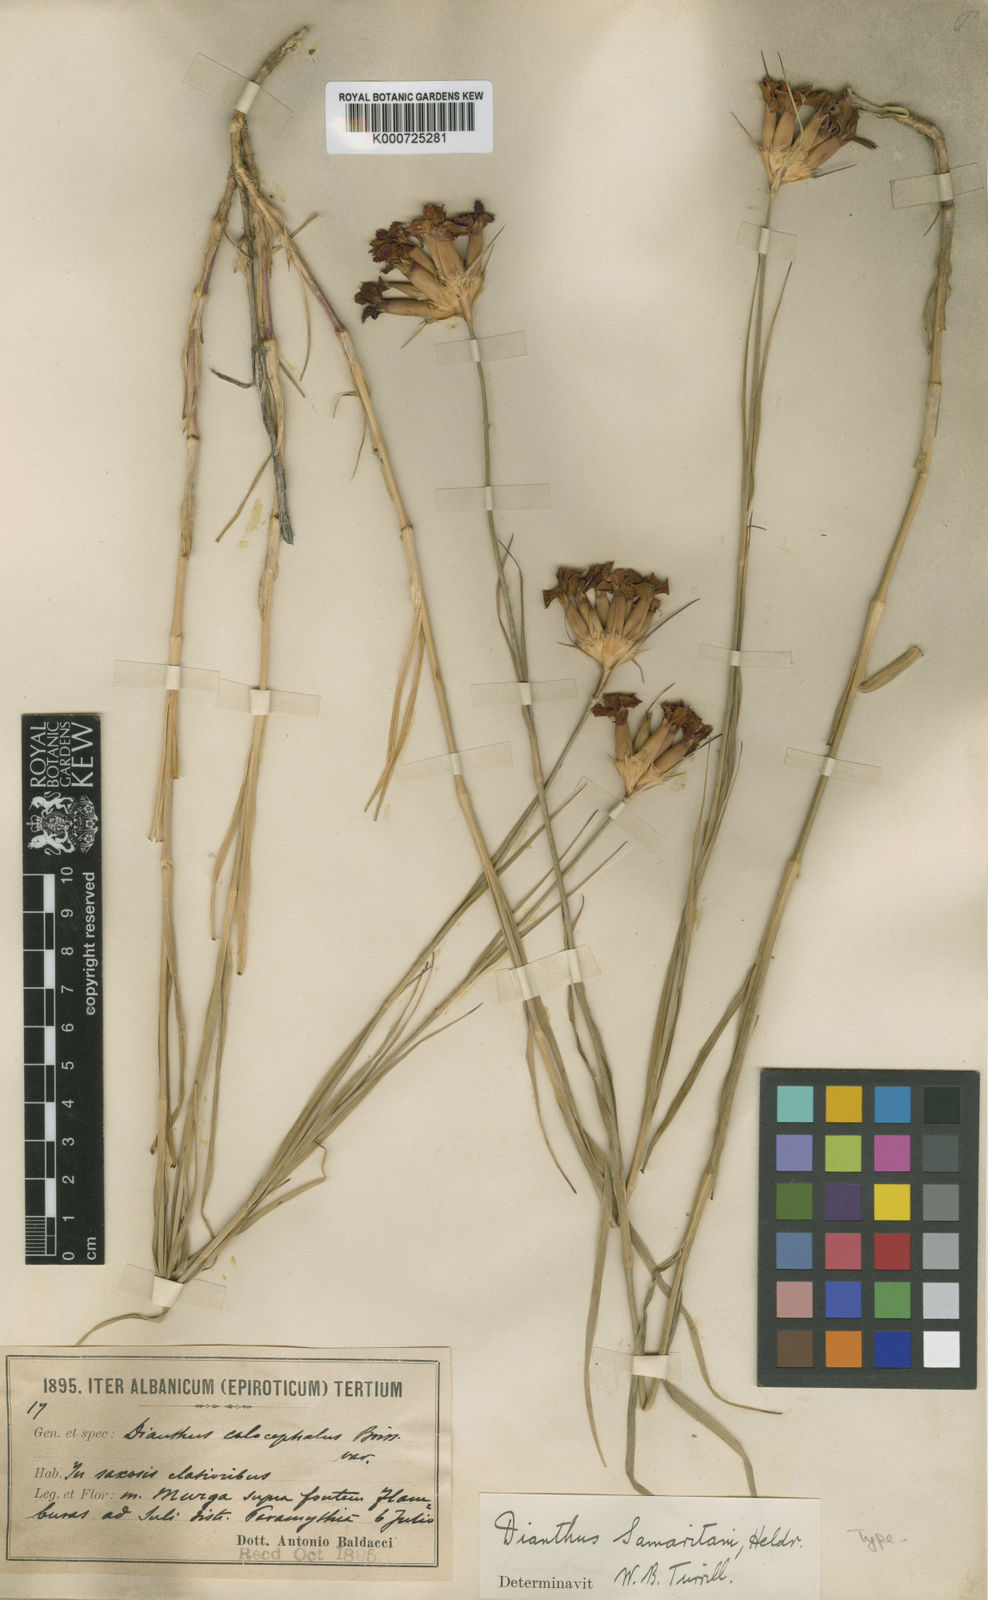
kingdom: Plantae
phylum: Tracheophyta
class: Magnoliopsida
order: Caryophyllales
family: Caryophyllaceae
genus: Dianthus
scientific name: Dianthus
